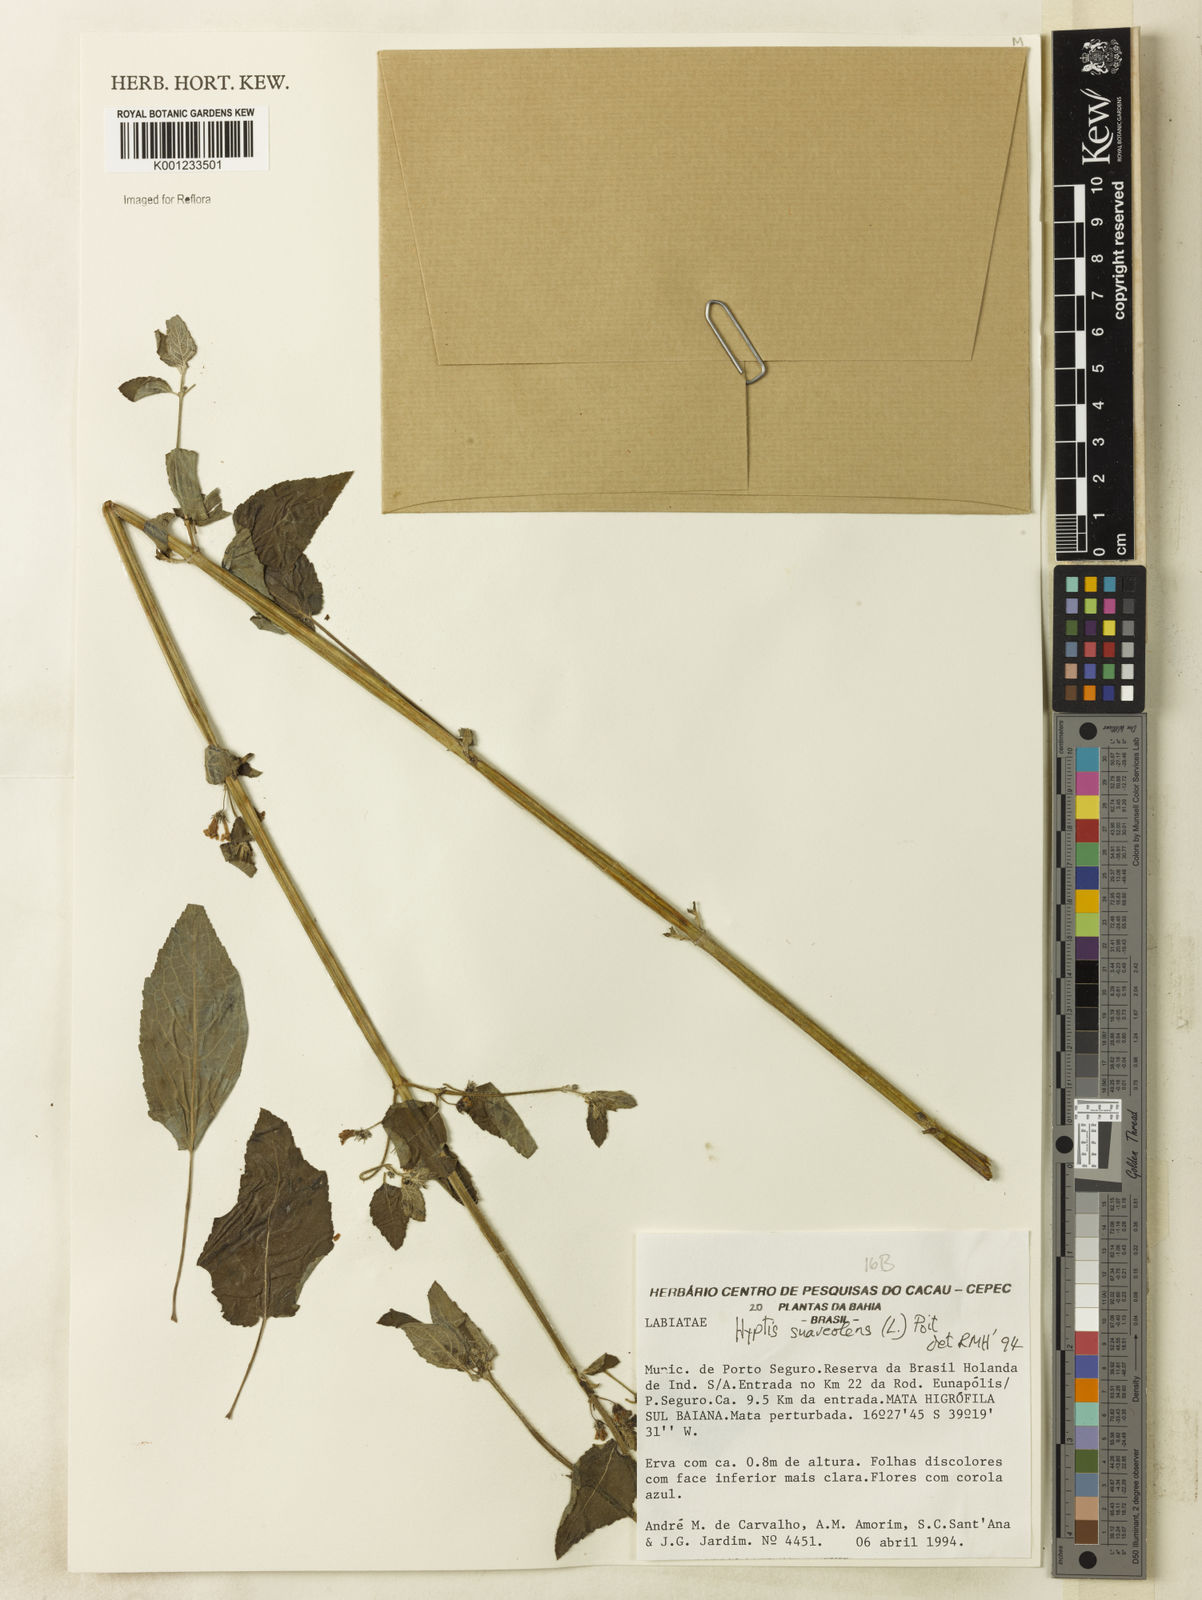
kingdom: Plantae
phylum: Tracheophyta
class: Magnoliopsida
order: Lamiales
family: Lamiaceae
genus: Mesosphaerum
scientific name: Mesosphaerum suaveolens
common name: Pignut
